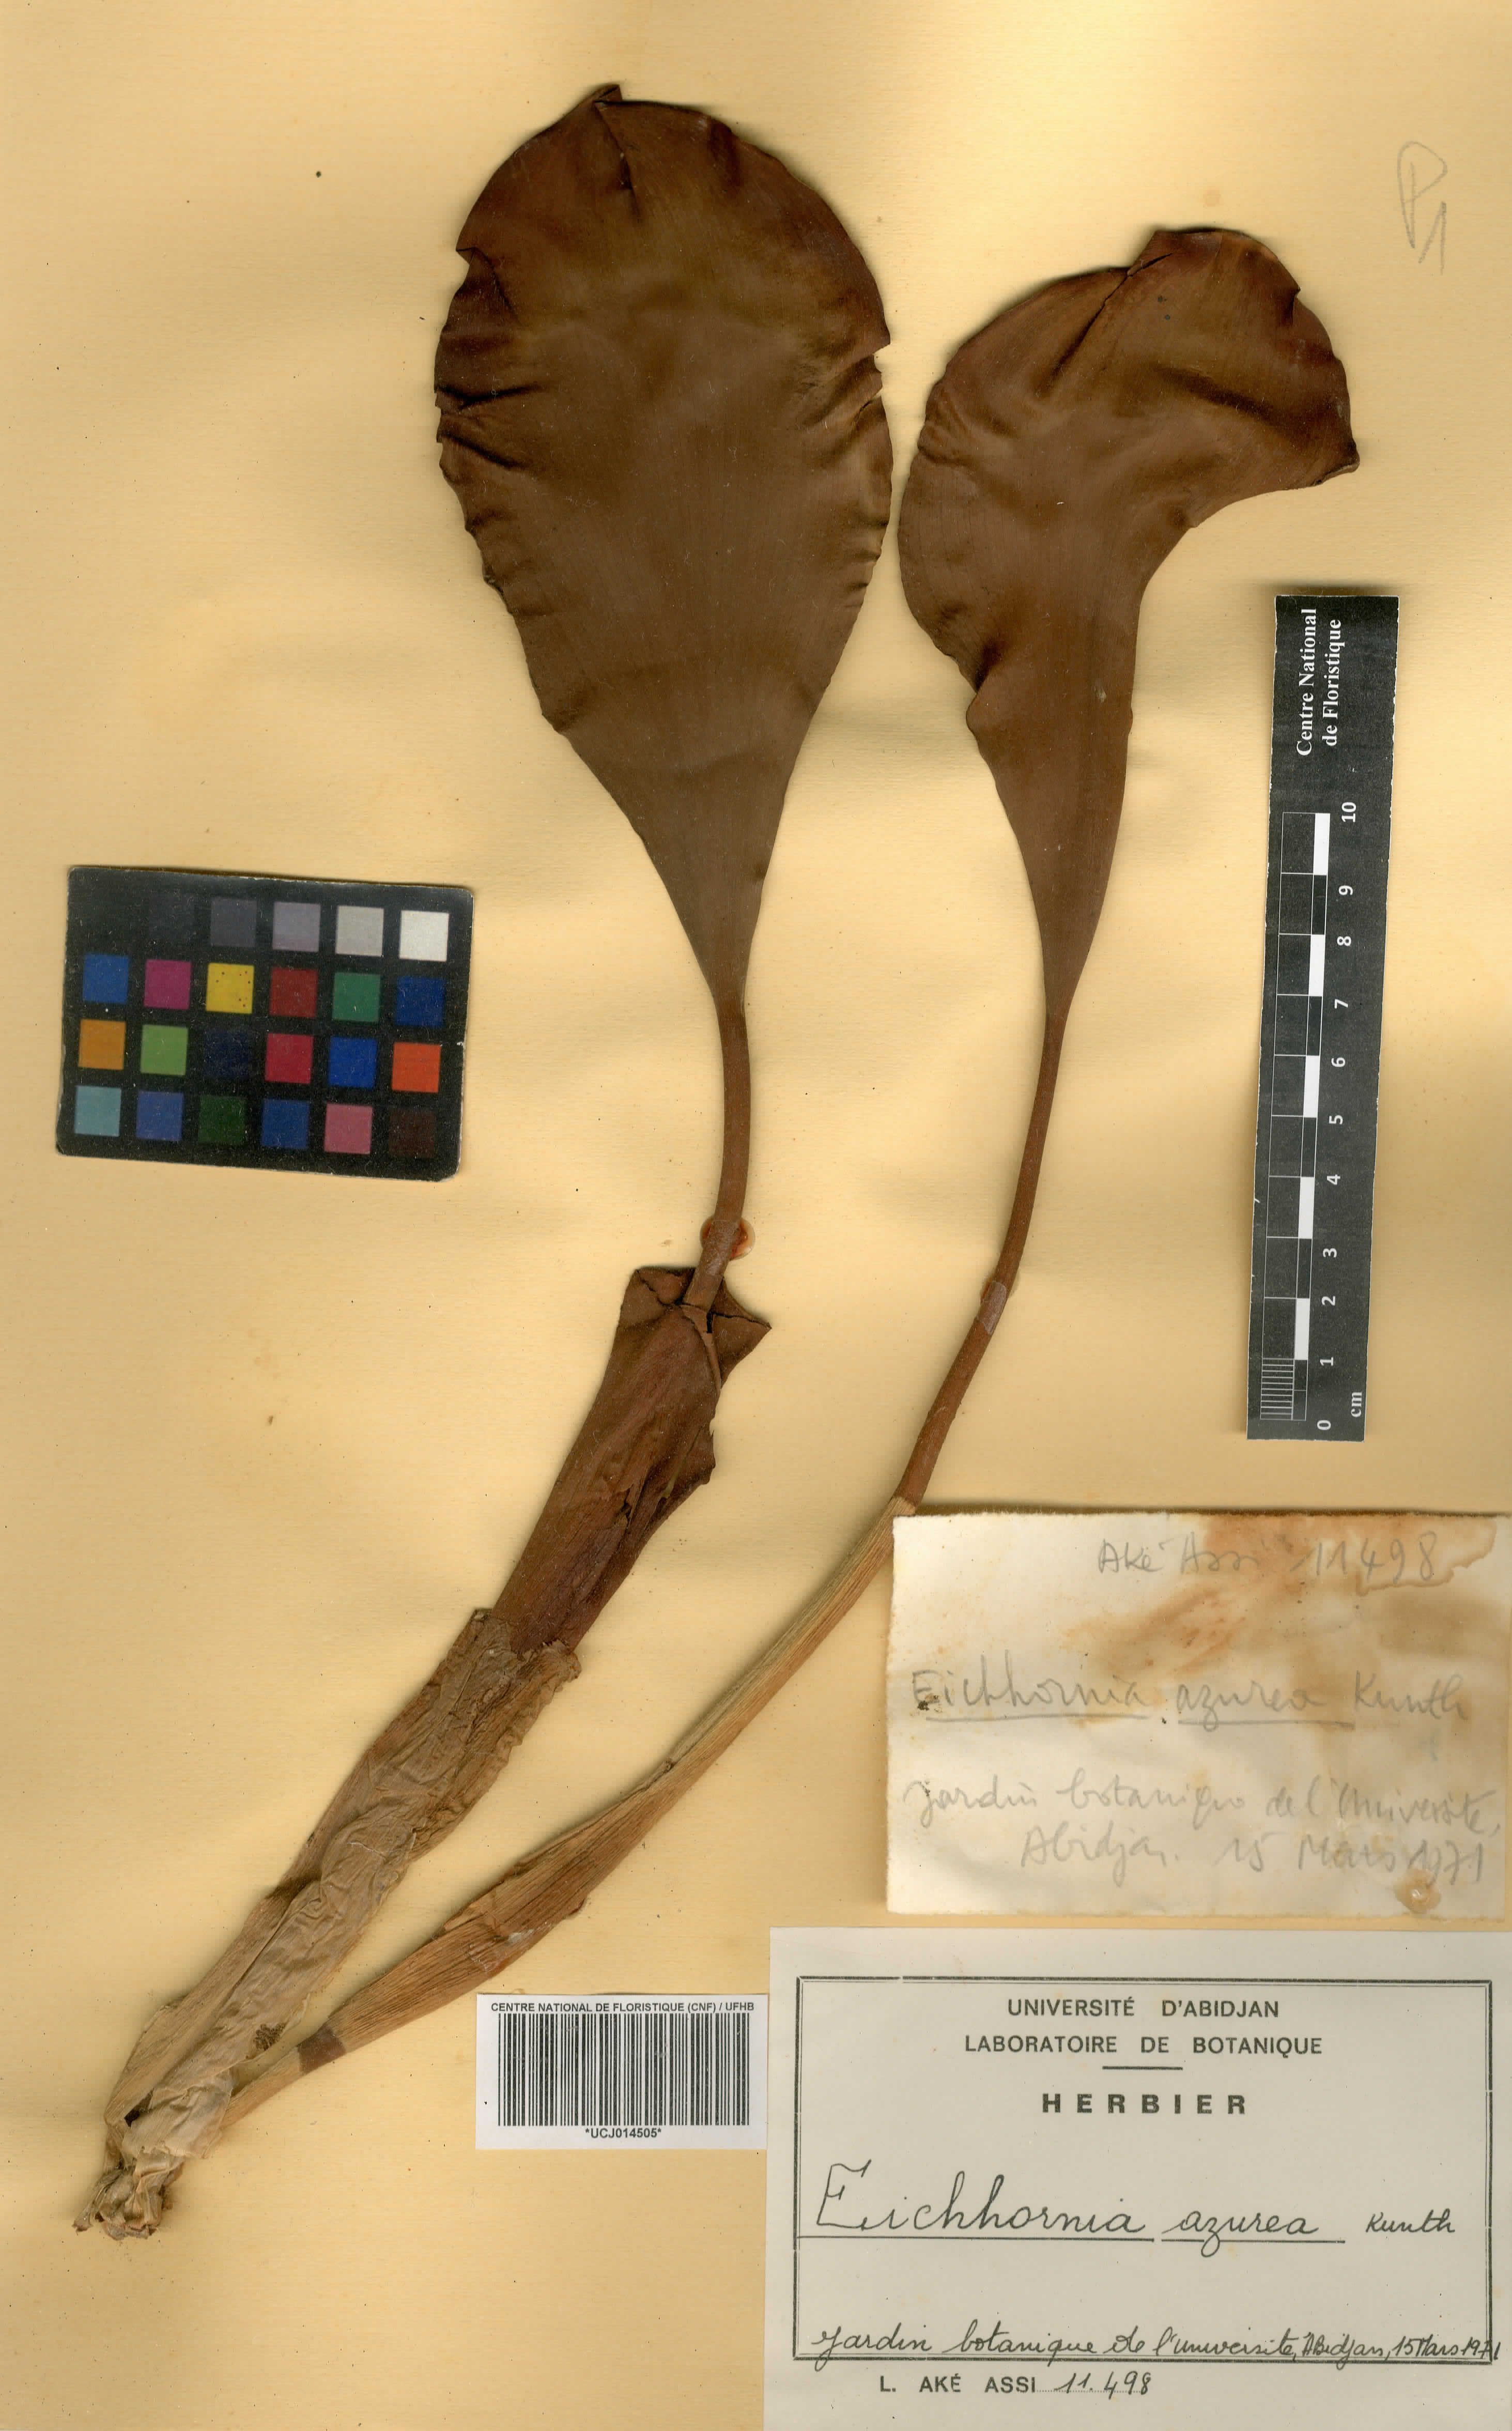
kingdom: Plantae
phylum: Tracheophyta
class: Liliopsida
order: Commelinales
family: Pontederiaceae
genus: Pontederia
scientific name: Pontederia azurea
